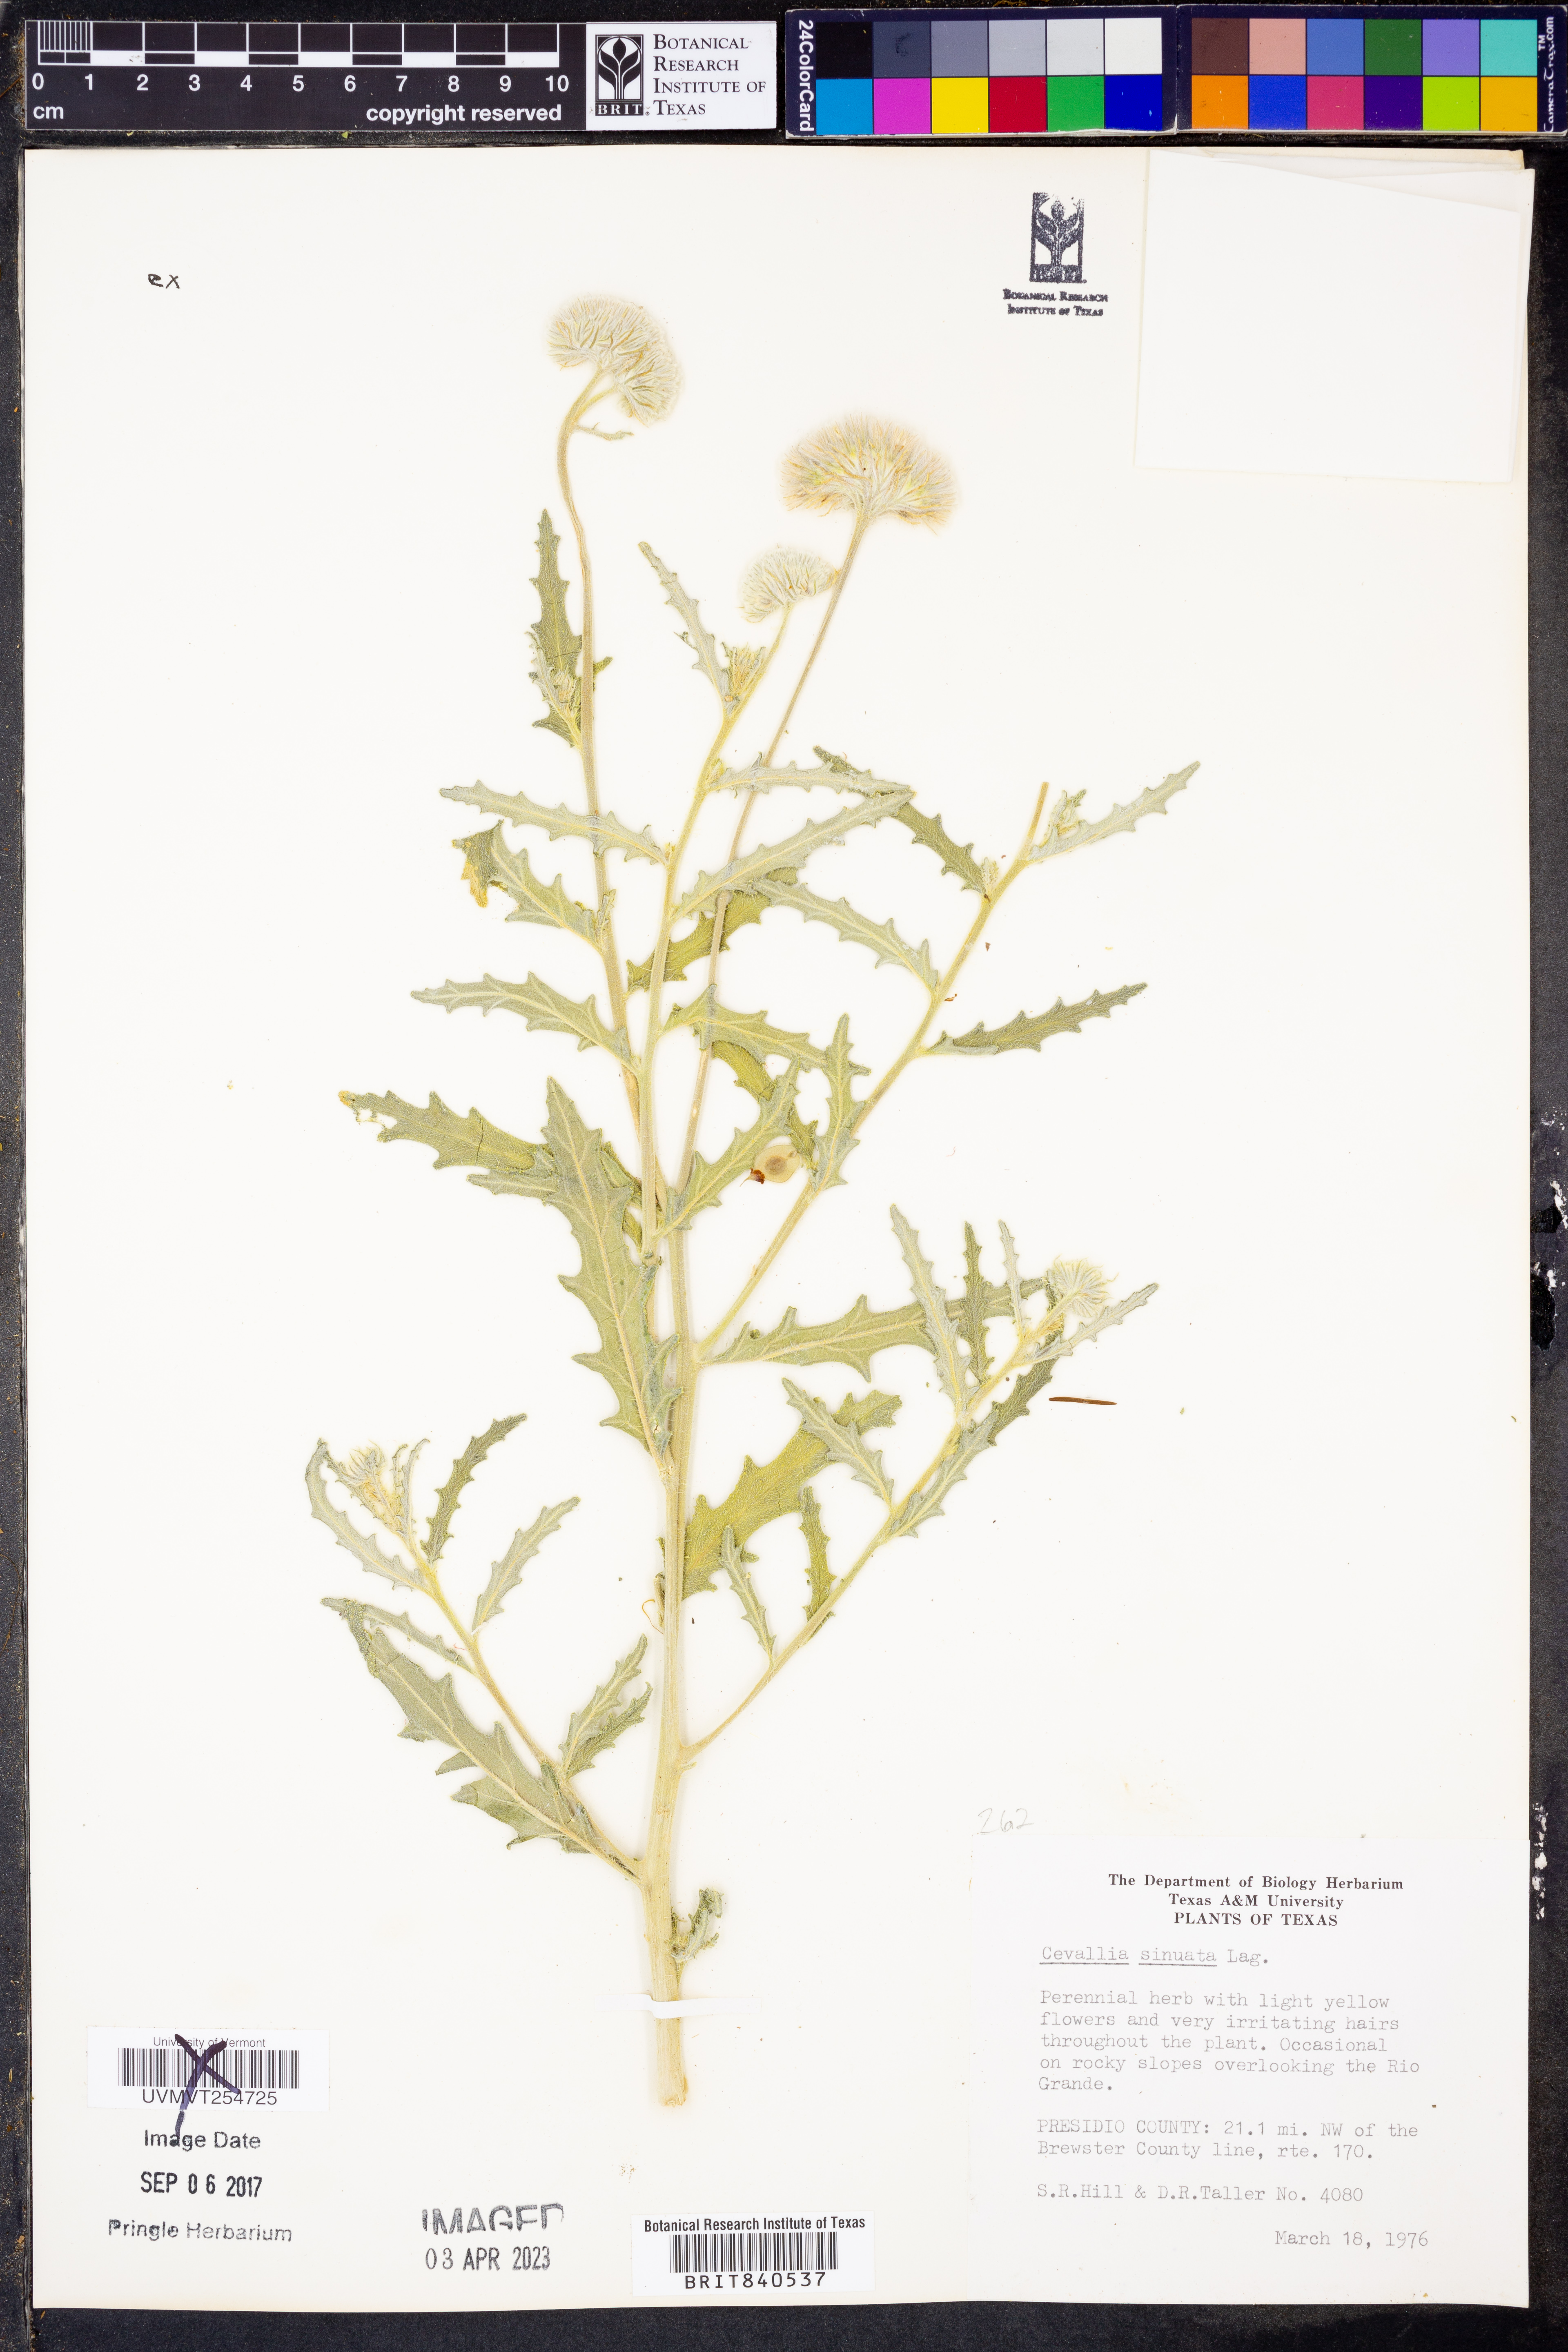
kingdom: Plantae
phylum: Tracheophyta
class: Magnoliopsida
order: Cornales
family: Loasaceae
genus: Cevallia
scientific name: Cevallia sinuata
